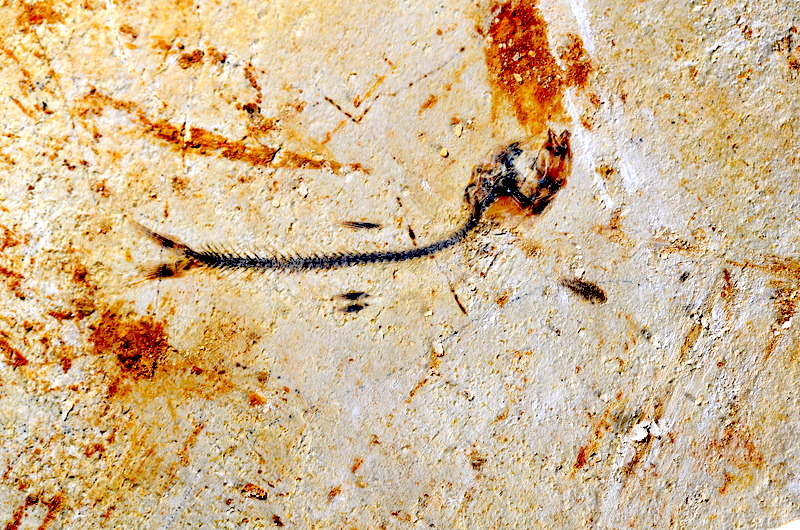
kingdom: Animalia
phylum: Chordata
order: Salmoniformes
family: Orthogonikleithridae
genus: Orthogonikleithrus
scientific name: Orthogonikleithrus hoelli
